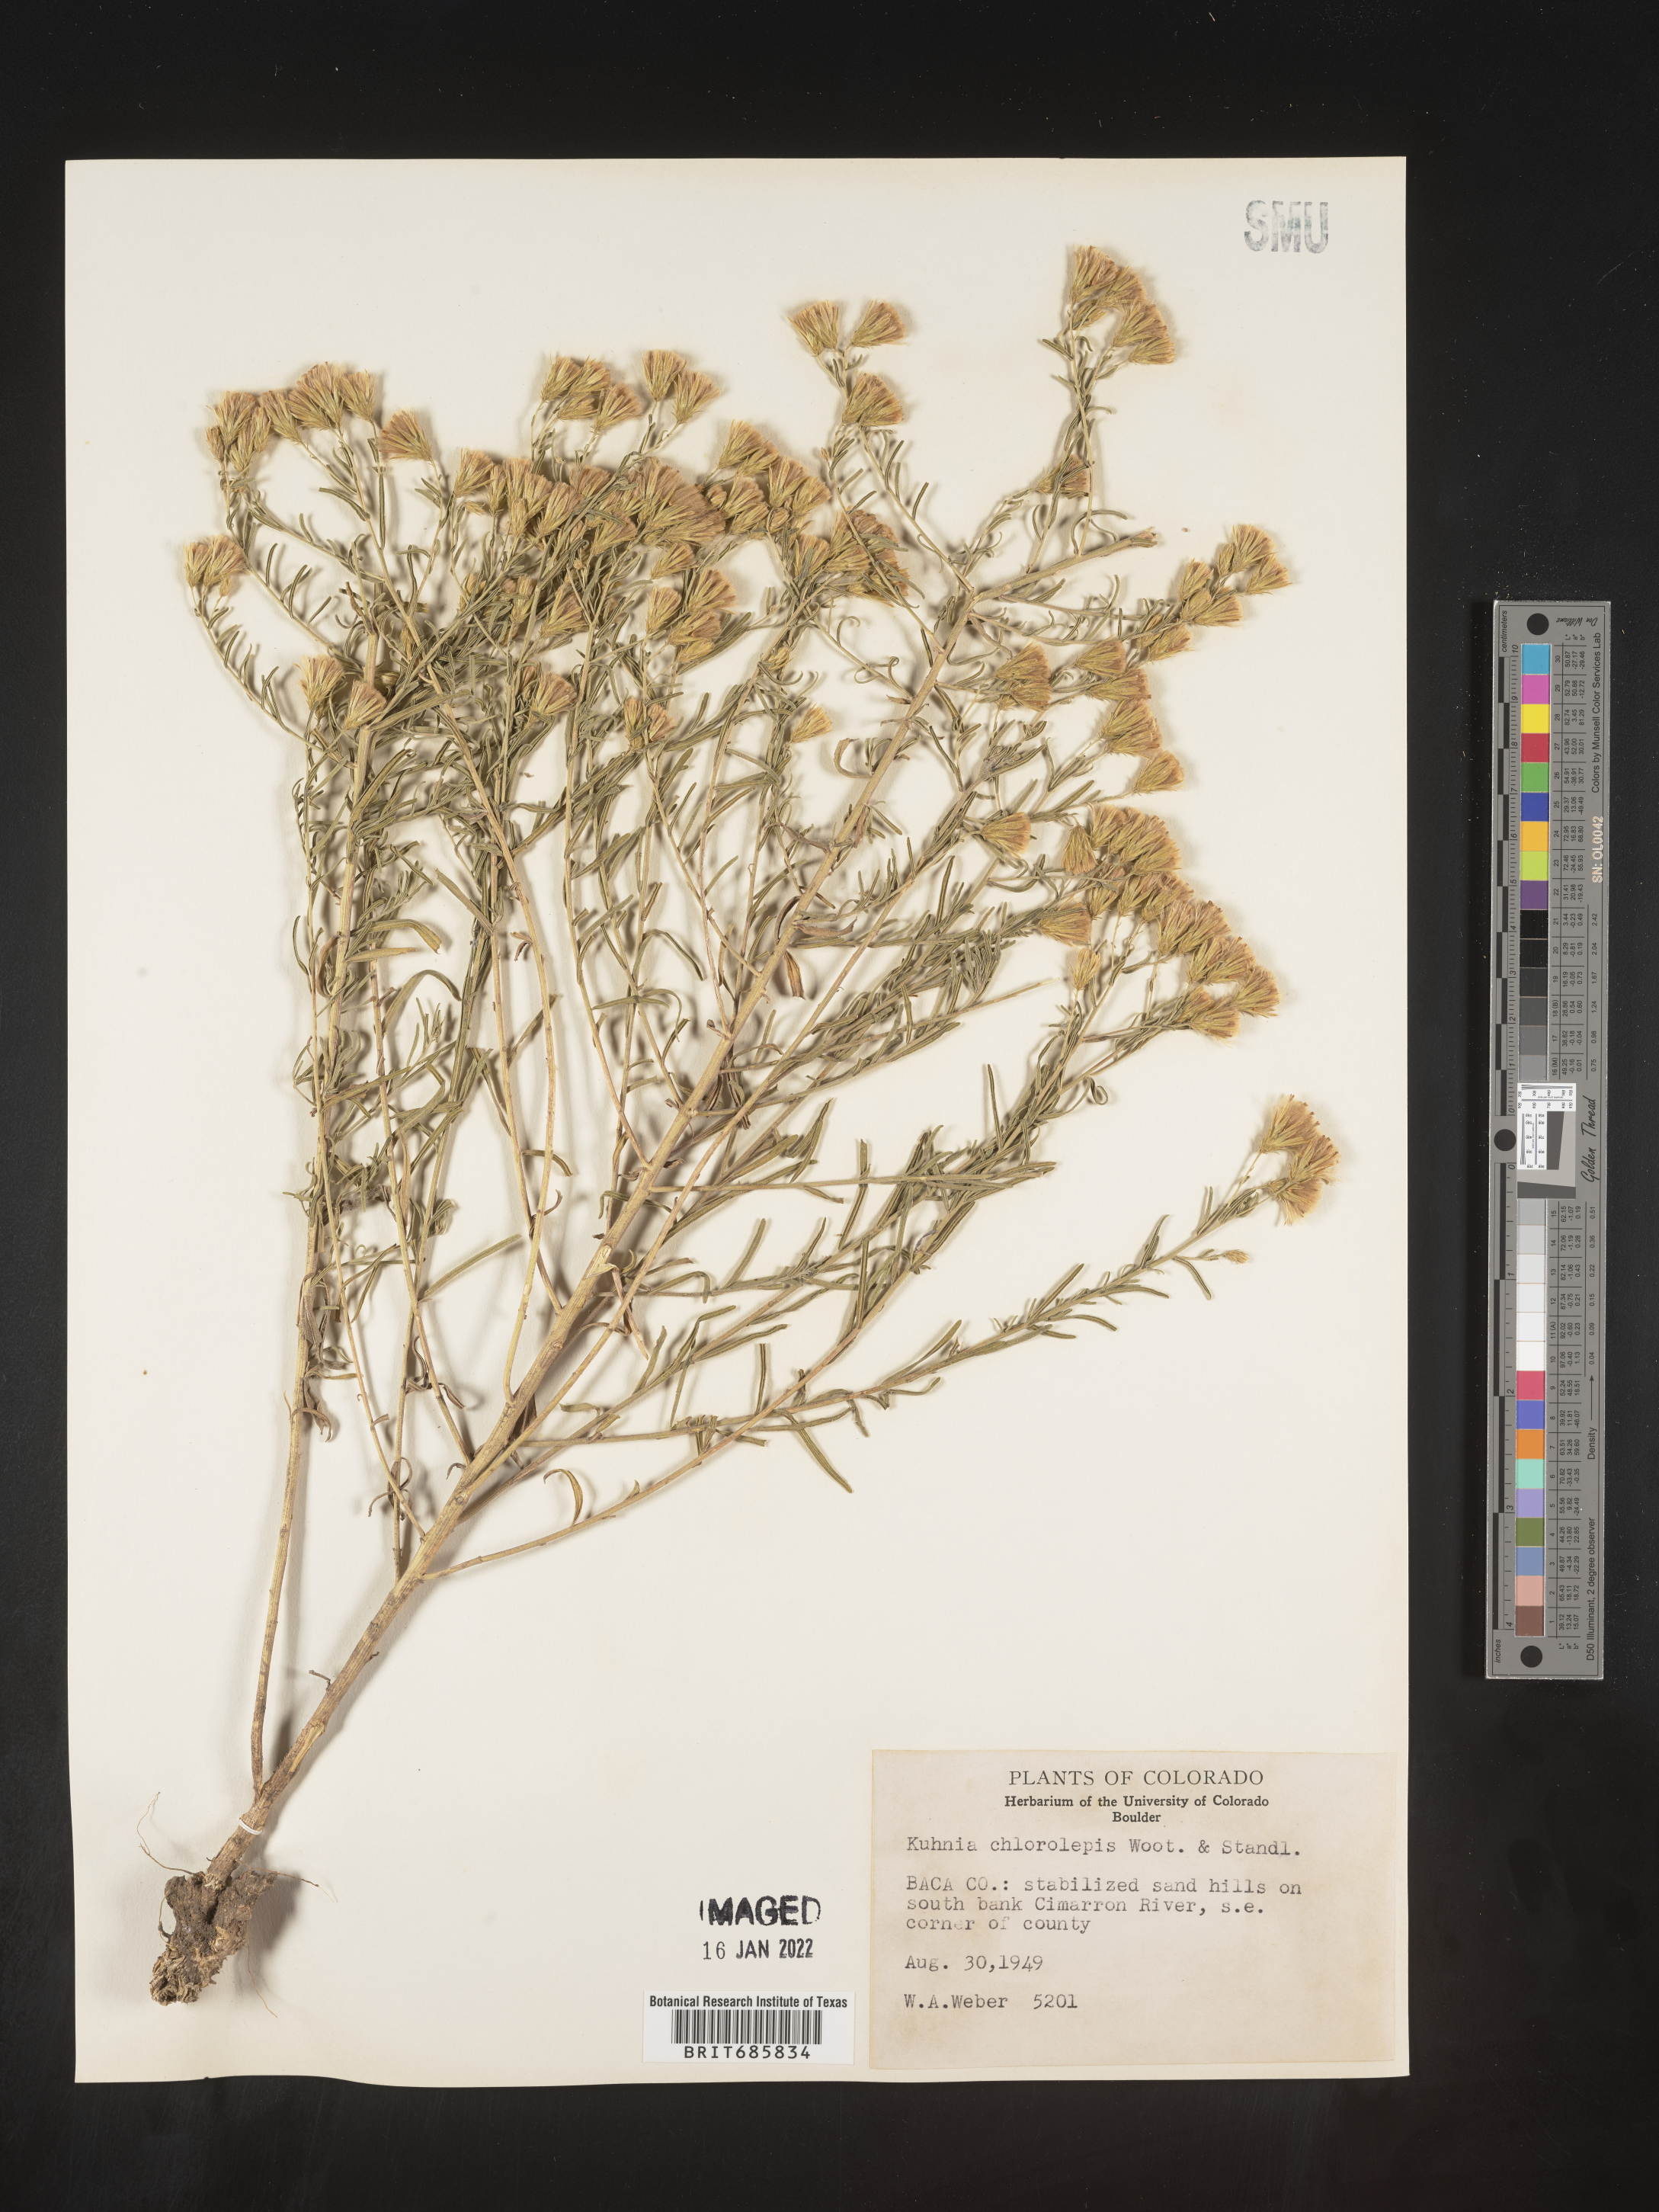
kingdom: Plantae
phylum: Tracheophyta
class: Magnoliopsida
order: Asterales
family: Asteraceae
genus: Brickellia
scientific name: Brickellia leptophylla
